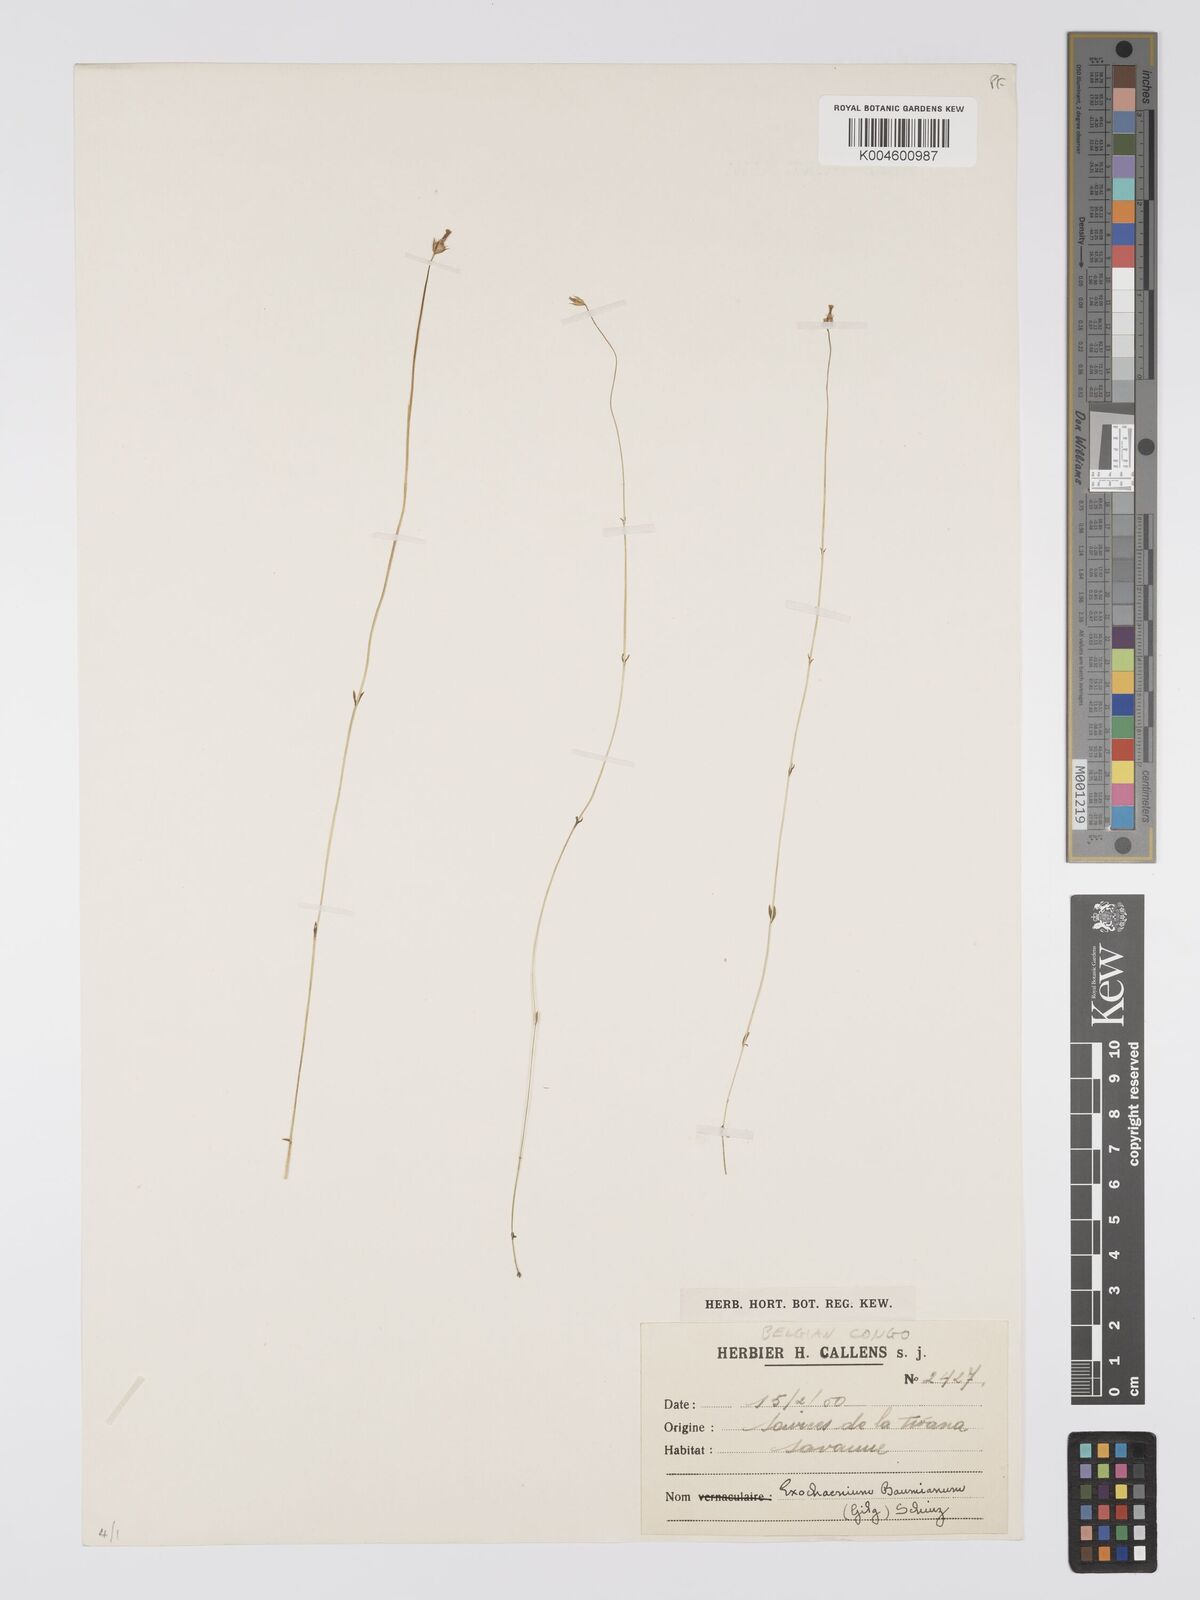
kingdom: Plantae
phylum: Tracheophyta
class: Magnoliopsida
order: Gentianales
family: Gentianaceae
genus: Exochaenium
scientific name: Exochaenium baumianum
